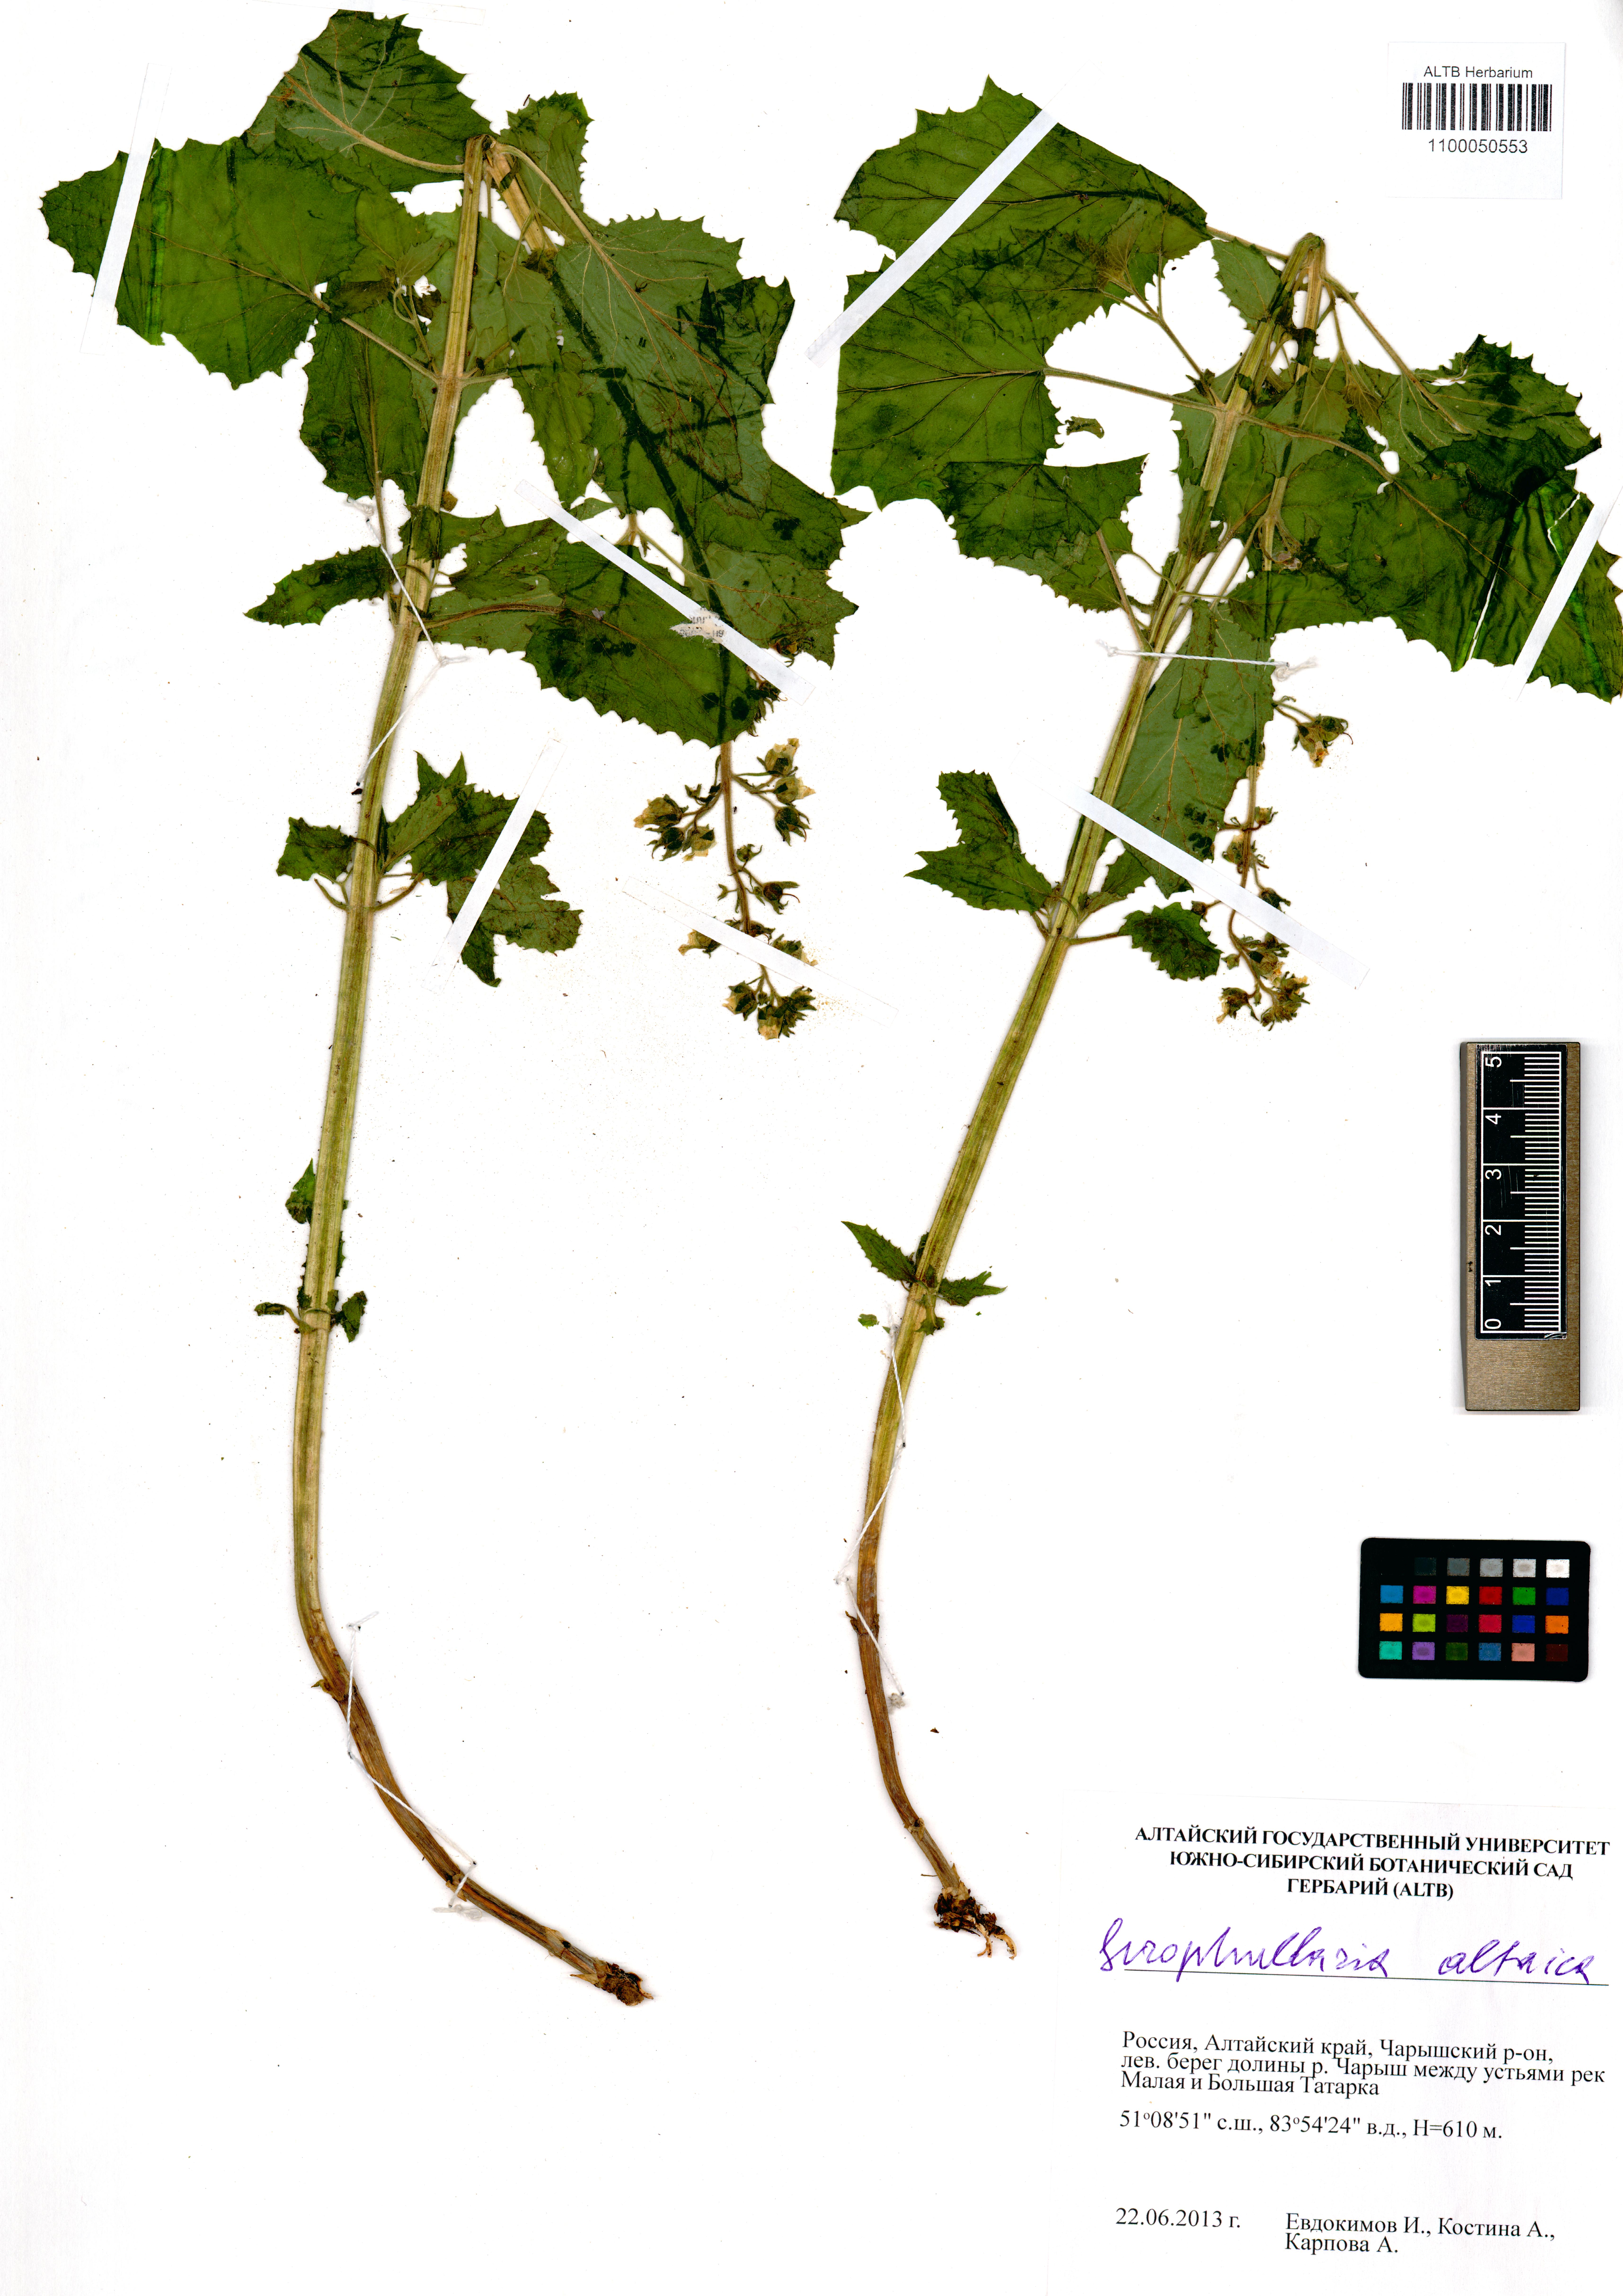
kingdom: Plantae
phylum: Tracheophyta
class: Magnoliopsida
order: Lamiales
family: Scrophulariaceae
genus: Scrophularia
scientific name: Scrophularia altaica
